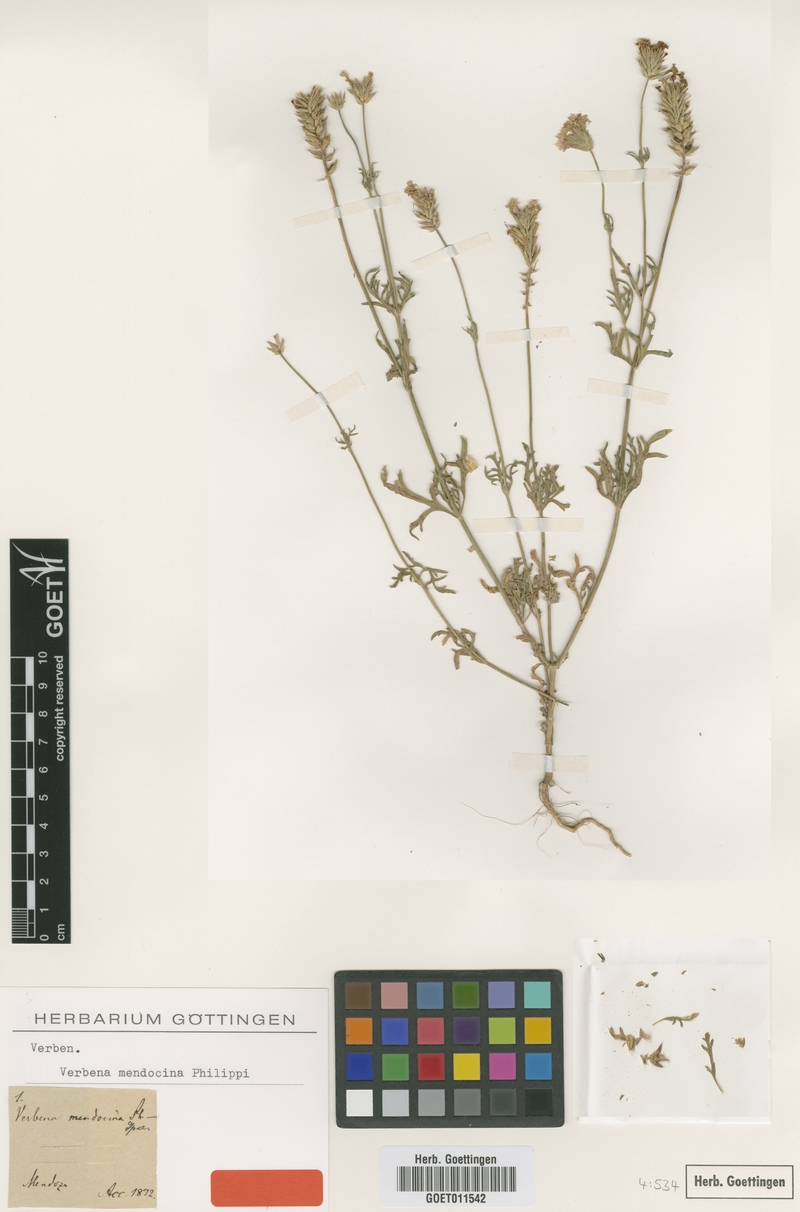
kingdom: Plantae
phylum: Tracheophyta
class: Magnoliopsida
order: Lamiales
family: Verbenaceae
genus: Verbena
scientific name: Verbena mendocina
